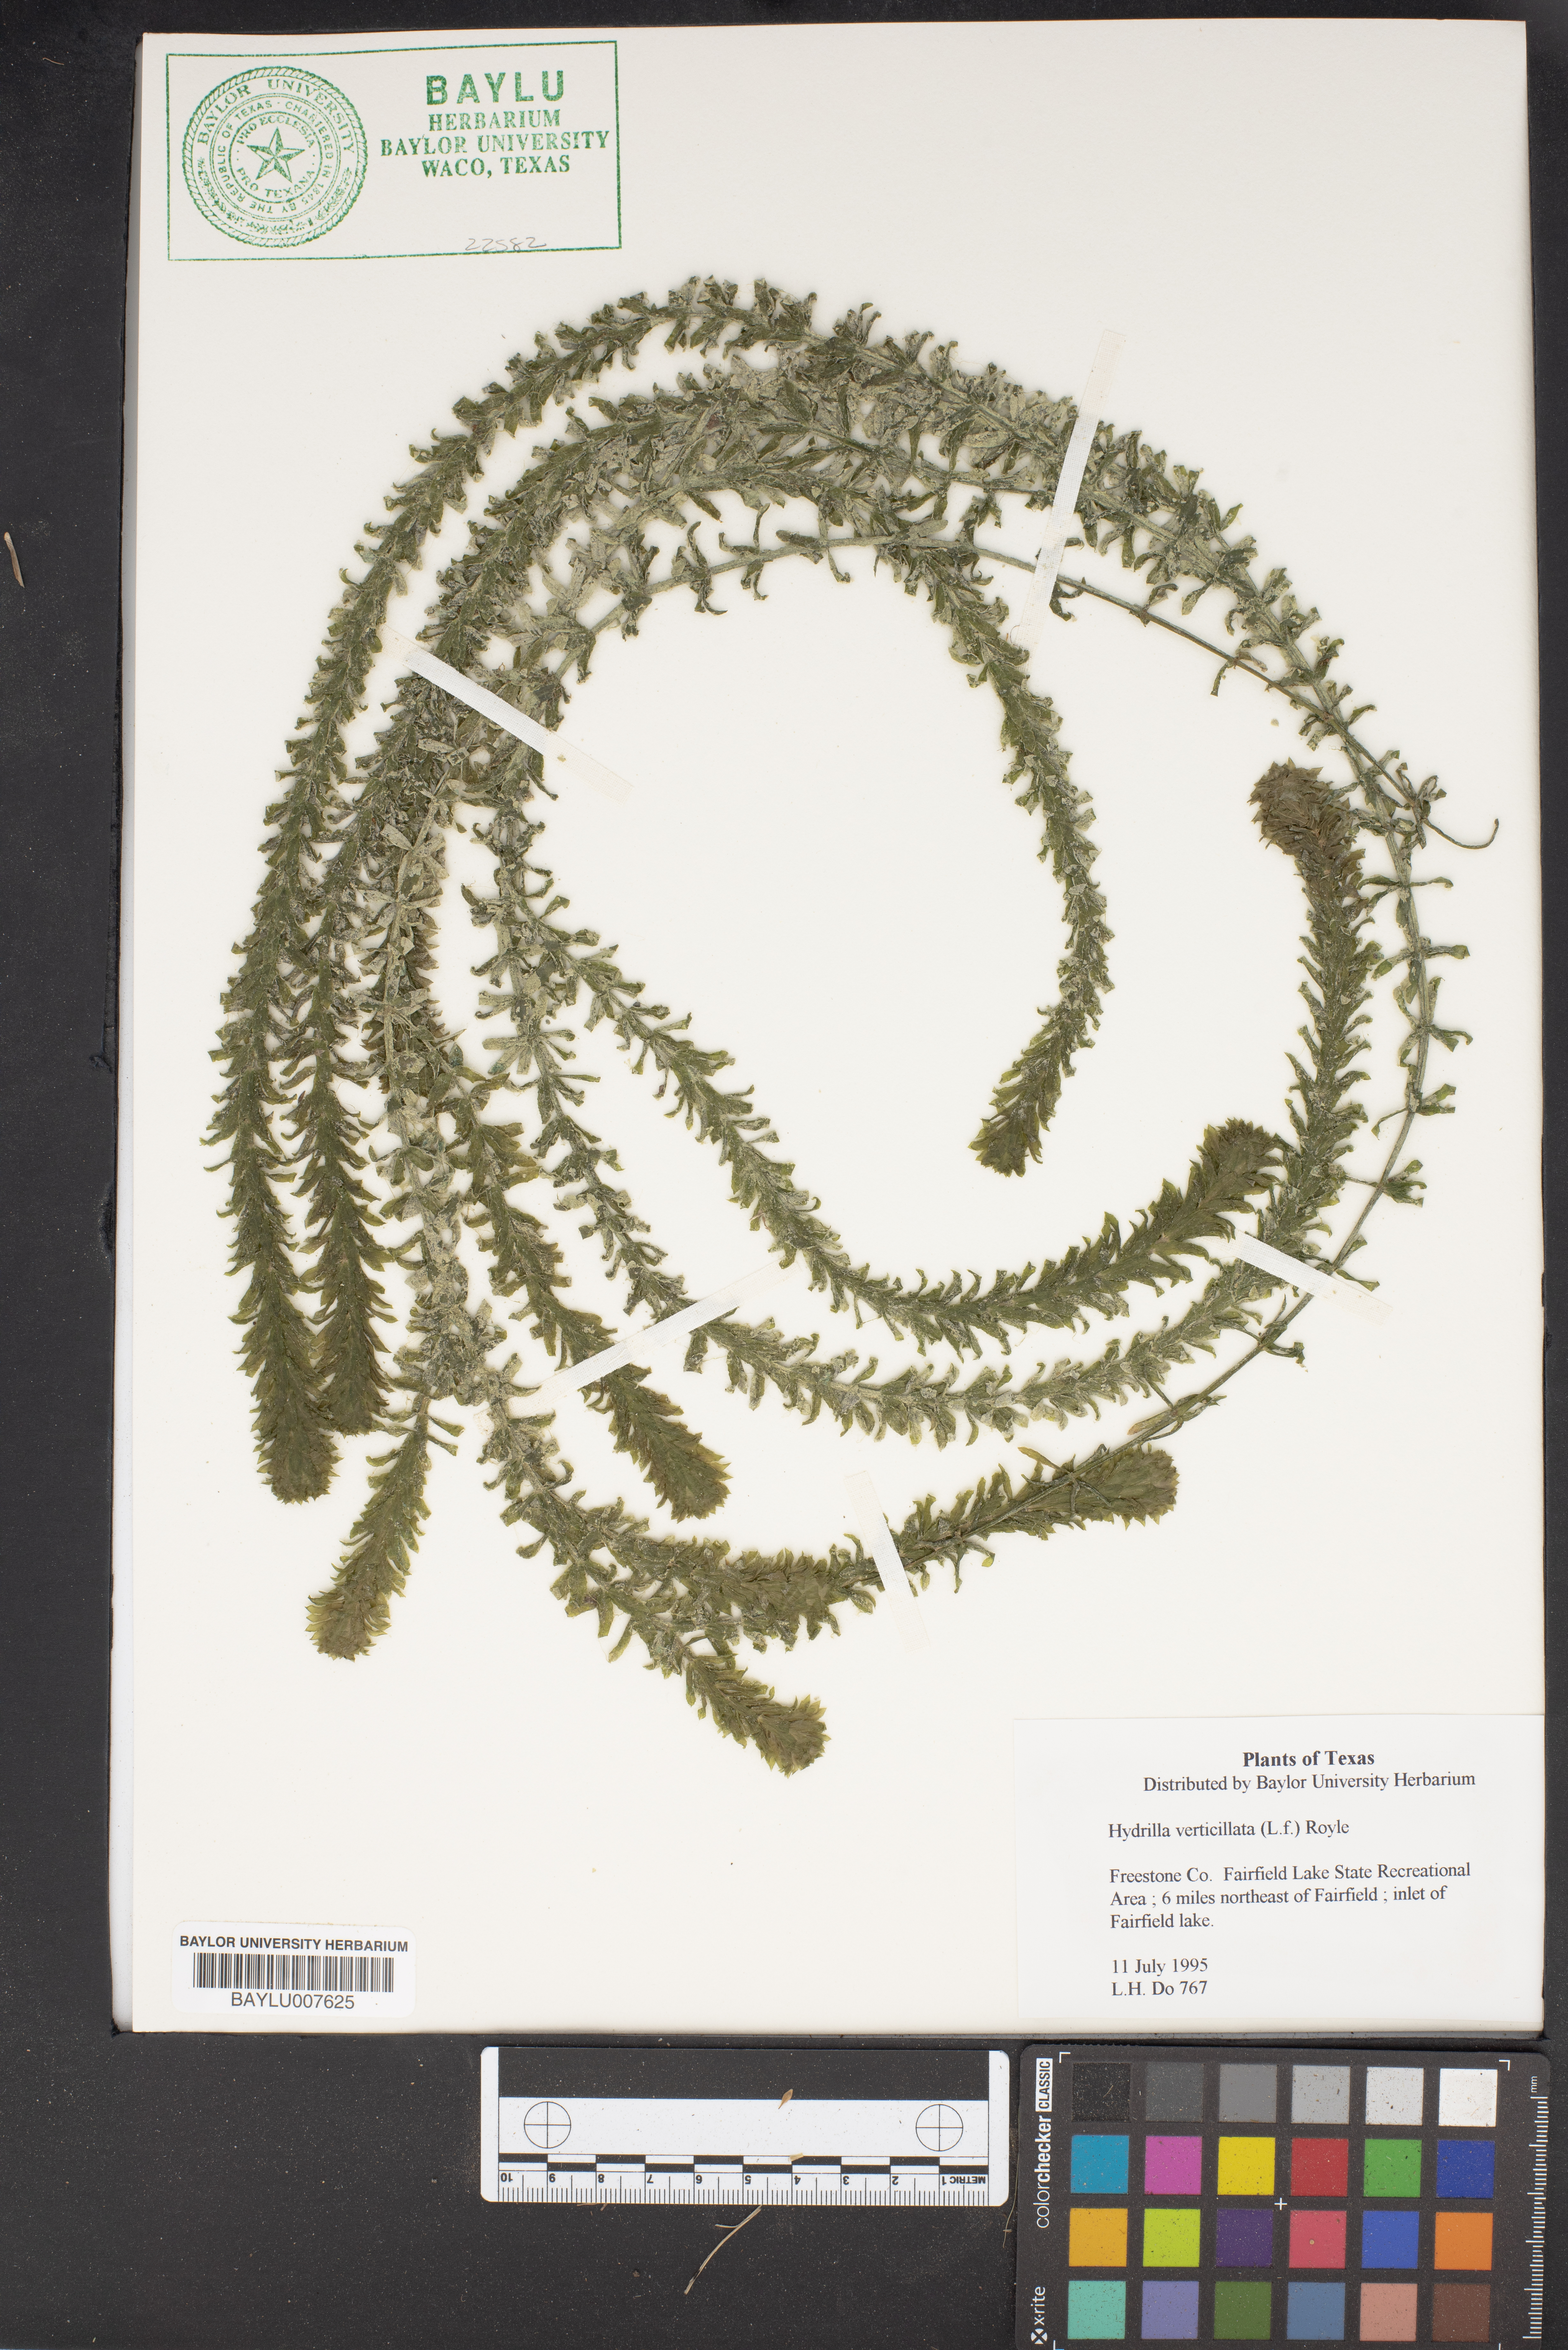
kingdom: Plantae
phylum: Tracheophyta
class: Liliopsida
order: Alismatales
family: Hydrocharitaceae
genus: Hydrilla
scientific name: Hydrilla verticillata
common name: Florida-elodea
